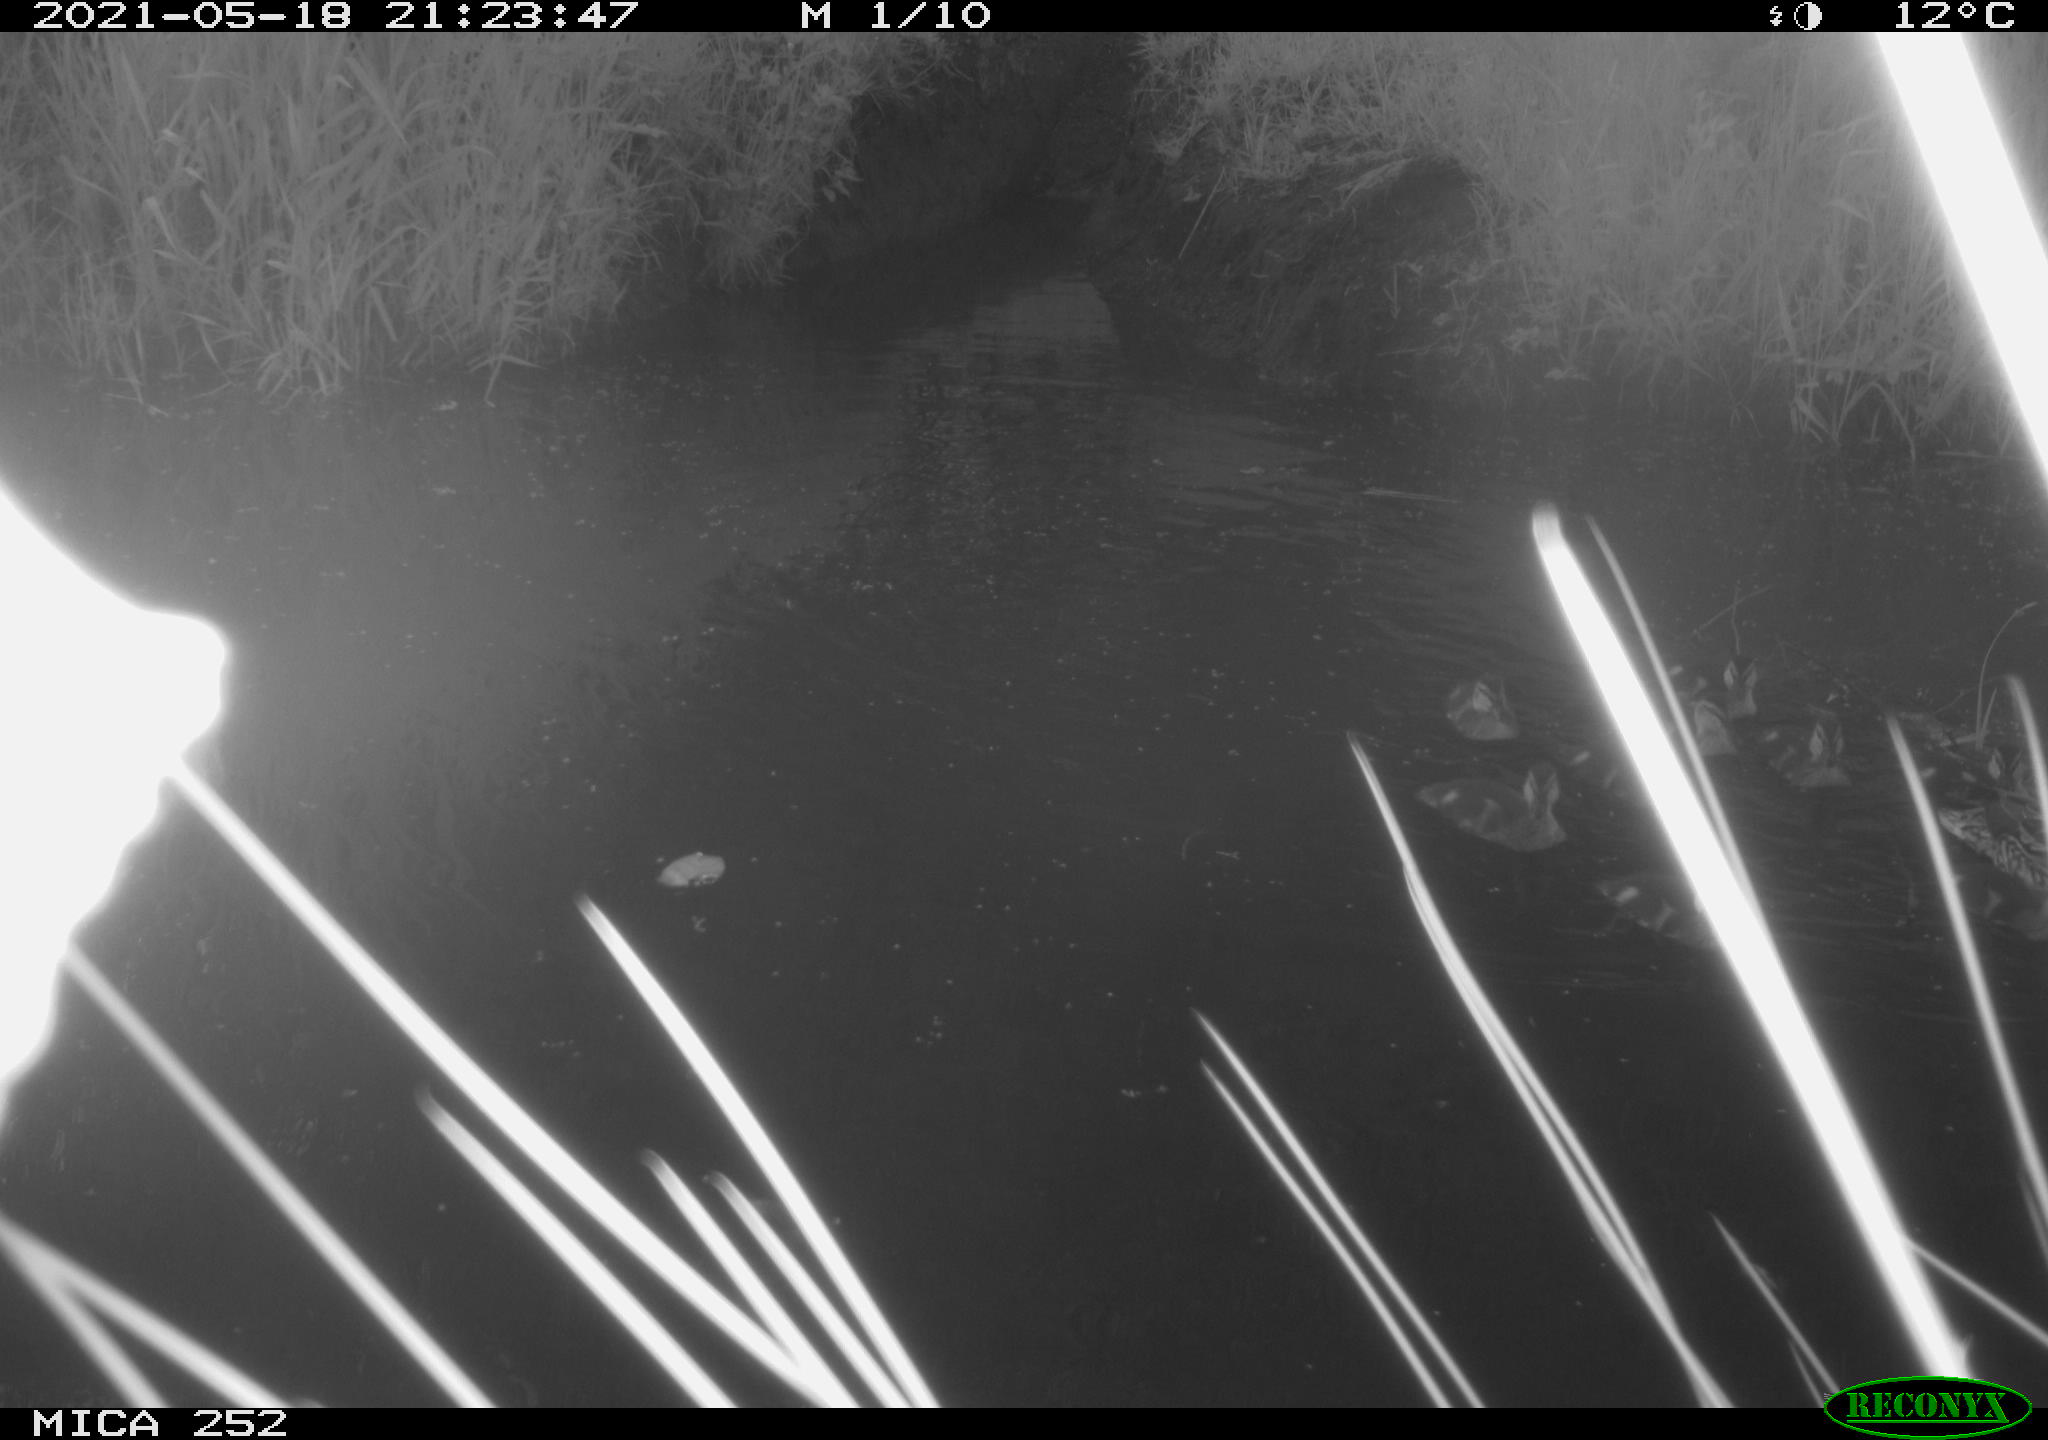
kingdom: Animalia
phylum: Chordata
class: Aves
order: Anseriformes
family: Anatidae
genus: Anas
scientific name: Anas
